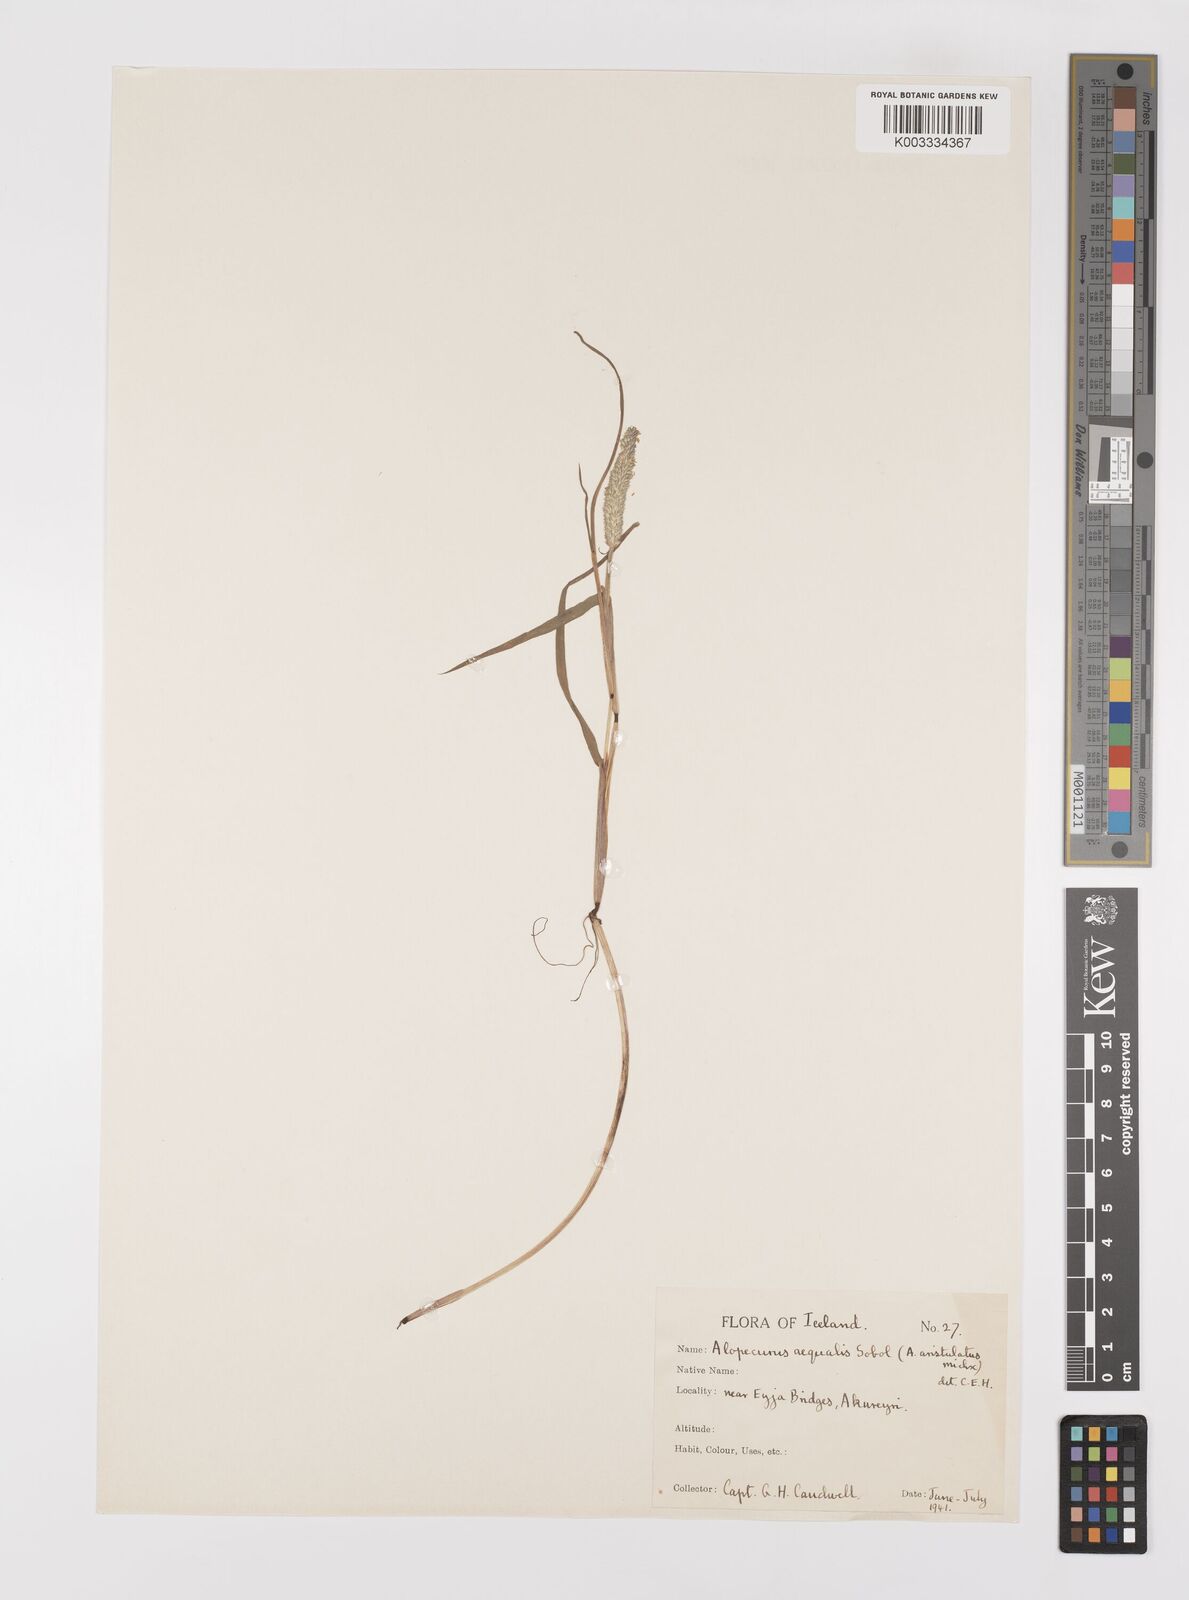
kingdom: Plantae
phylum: Tracheophyta
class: Liliopsida
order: Poales
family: Poaceae
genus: Alopecurus
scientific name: Alopecurus aequalis
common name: Orange foxtail
